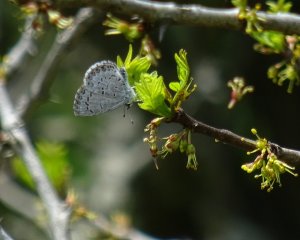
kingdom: Animalia
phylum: Arthropoda
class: Insecta
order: Lepidoptera
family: Lycaenidae
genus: Celastrina
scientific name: Celastrina lucia
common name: Northern Spring Azure
